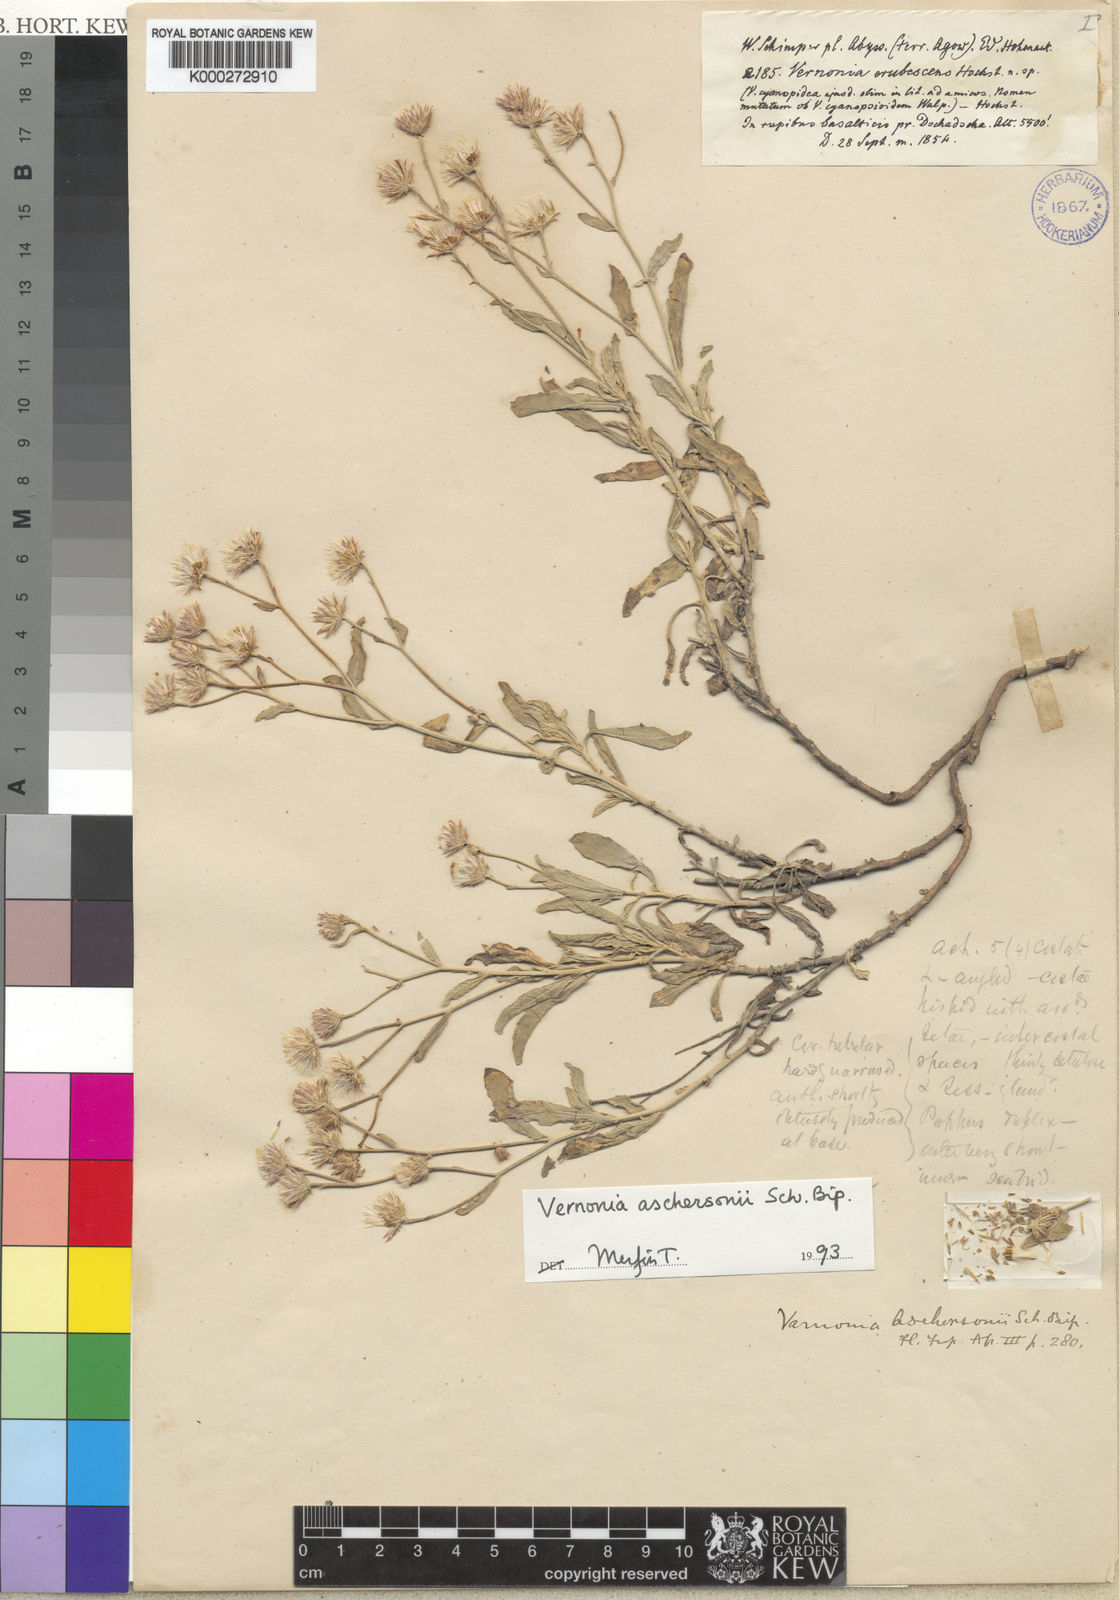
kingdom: Plantae
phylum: Tracheophyta
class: Magnoliopsida
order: Asterales
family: Asteraceae
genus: Vernonia
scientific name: Vernonia aschersonii
